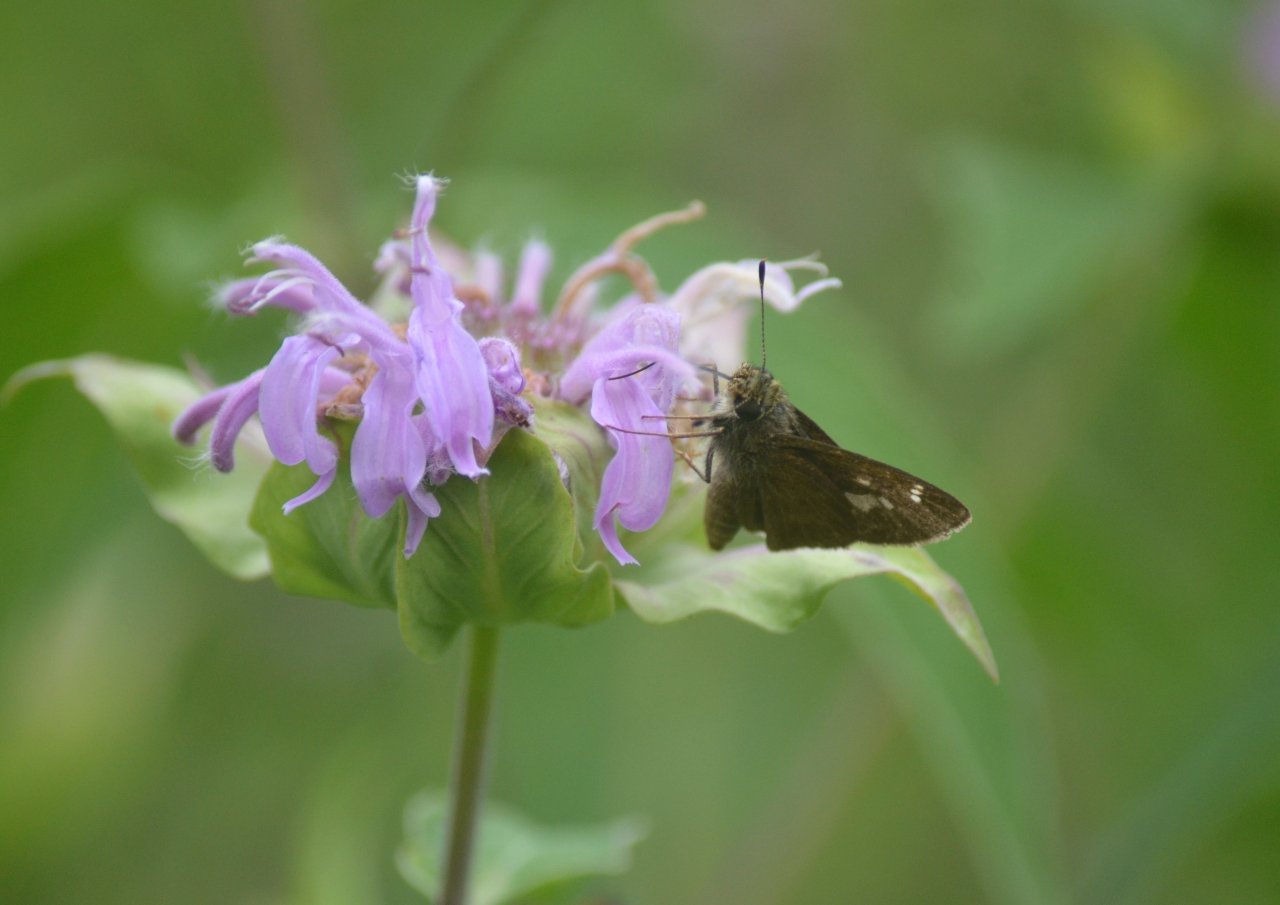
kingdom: Animalia
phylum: Arthropoda
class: Insecta
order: Lepidoptera
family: Hesperiidae
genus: Vernia
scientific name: Vernia verna
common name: Little Glassywing
